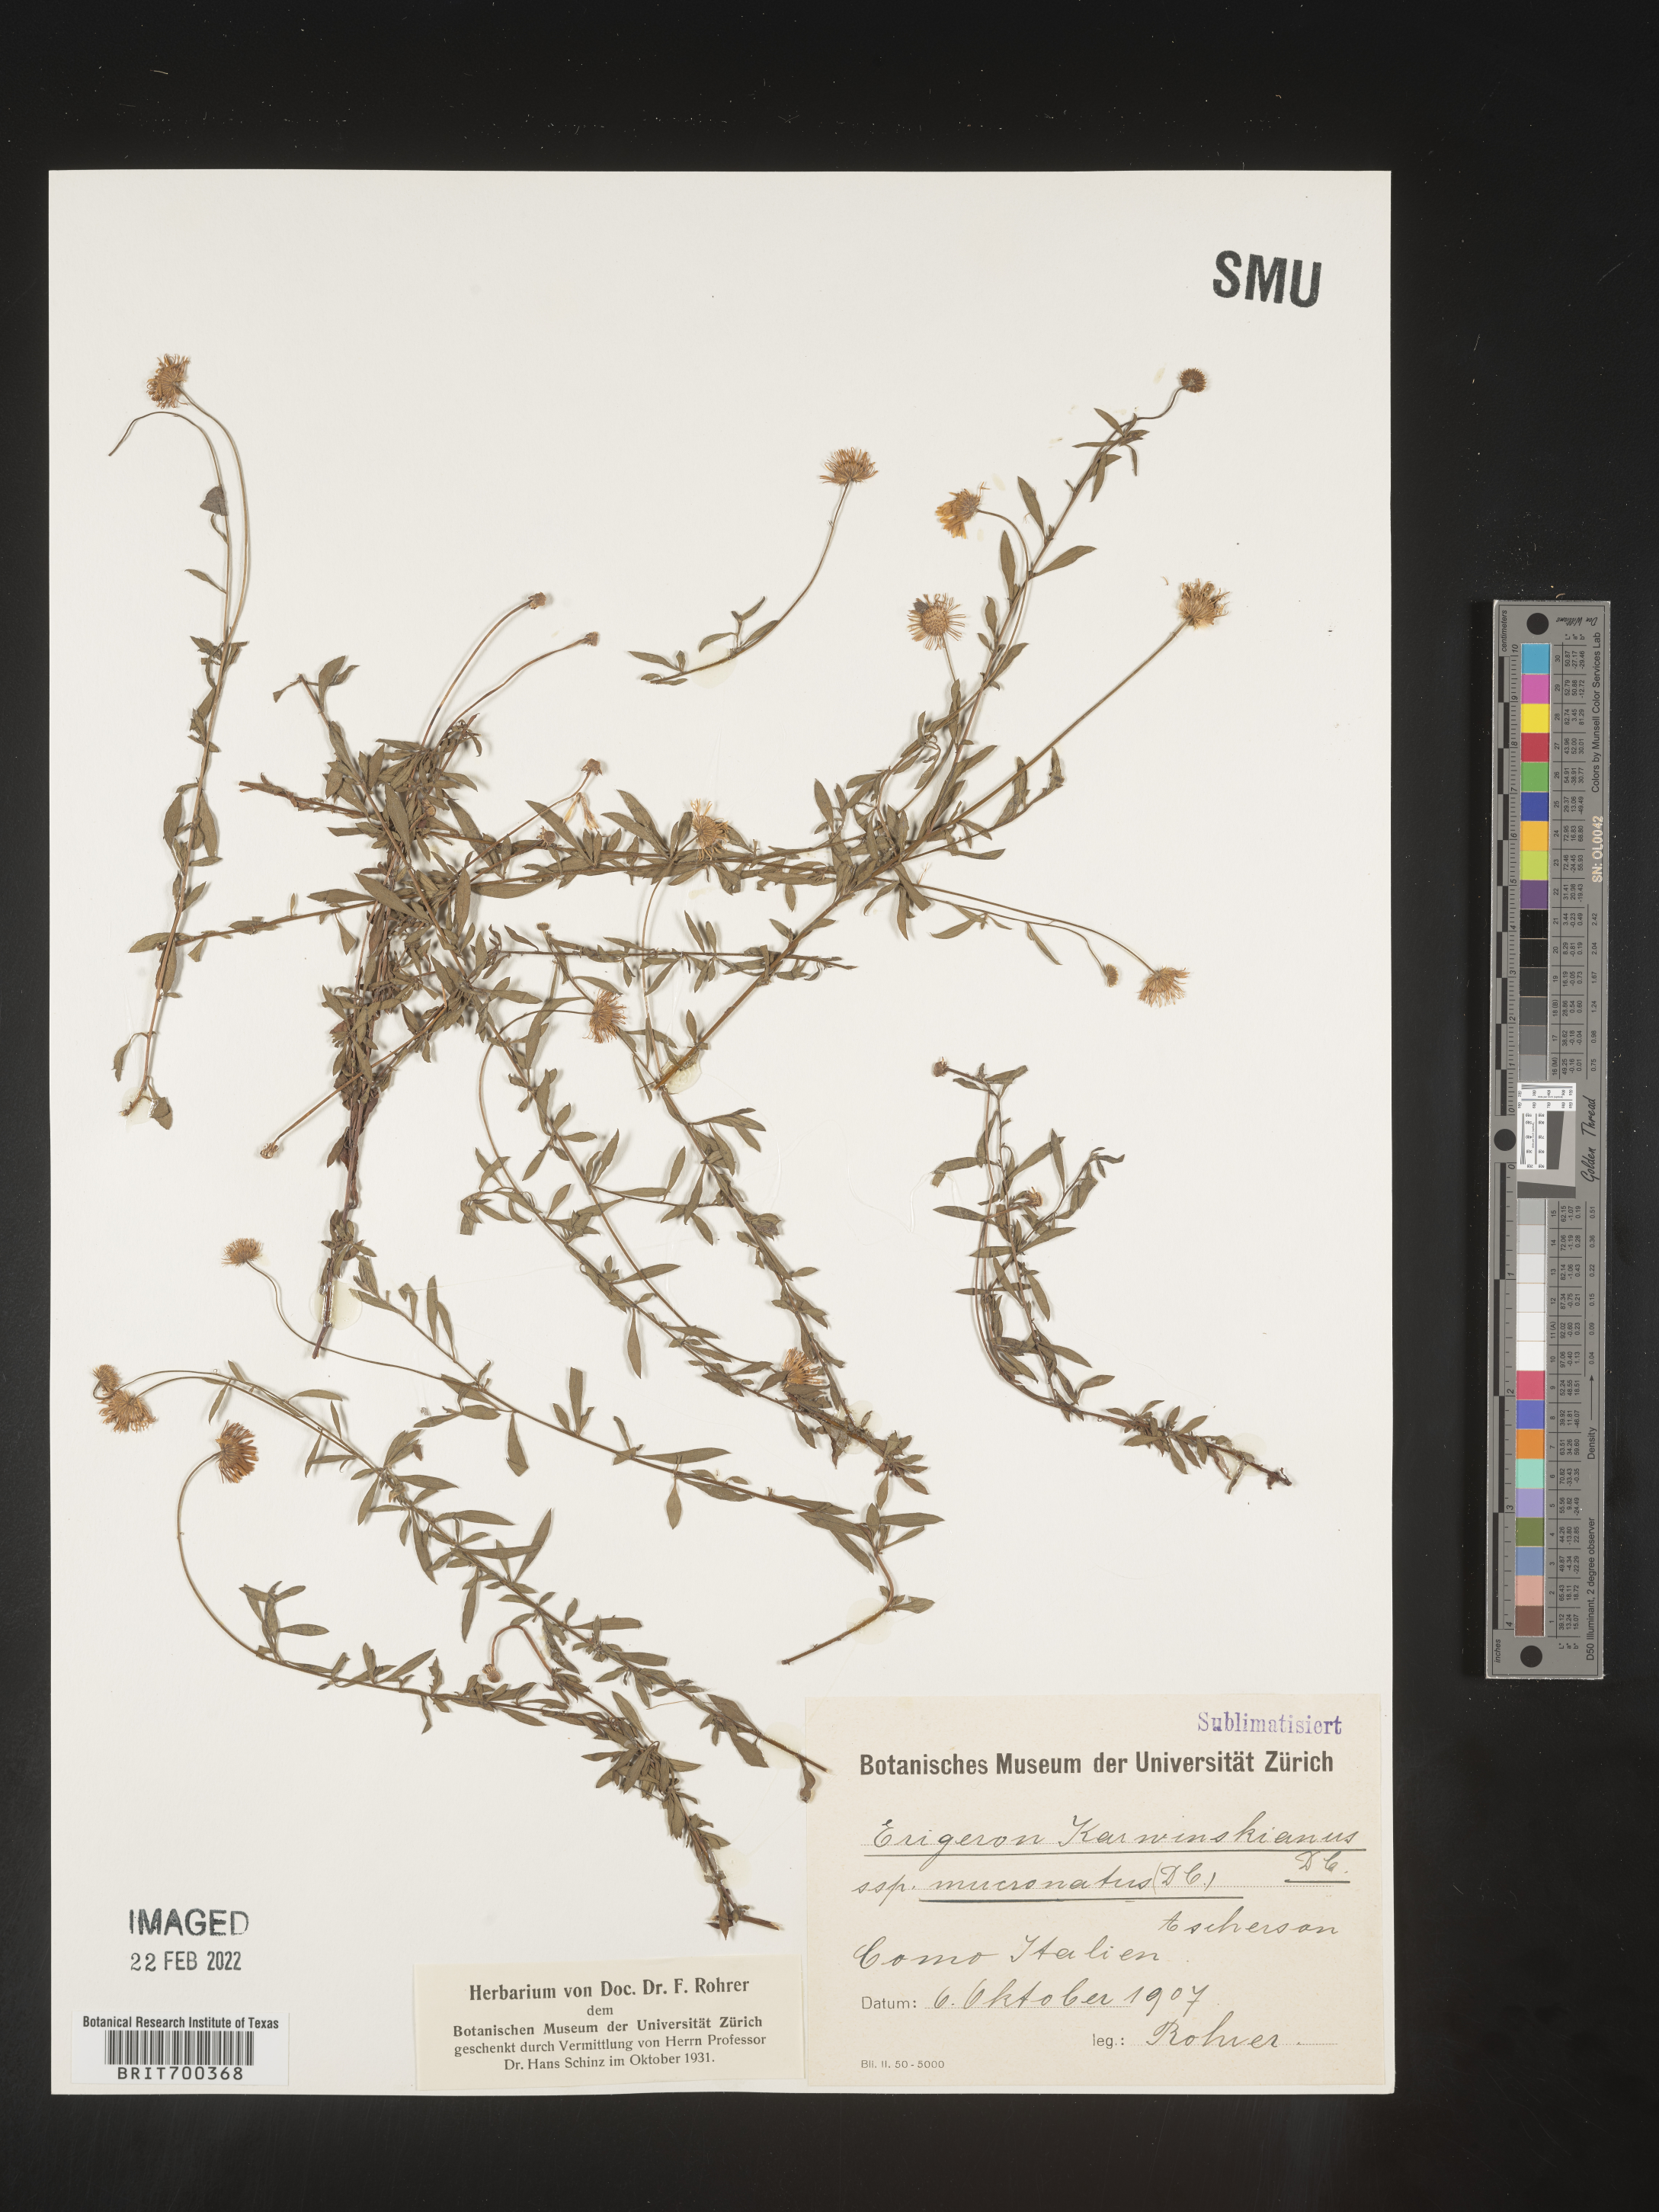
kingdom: Plantae
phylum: Tracheophyta
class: Magnoliopsida
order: Asterales
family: Asteraceae
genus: Erigeron
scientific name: Erigeron
